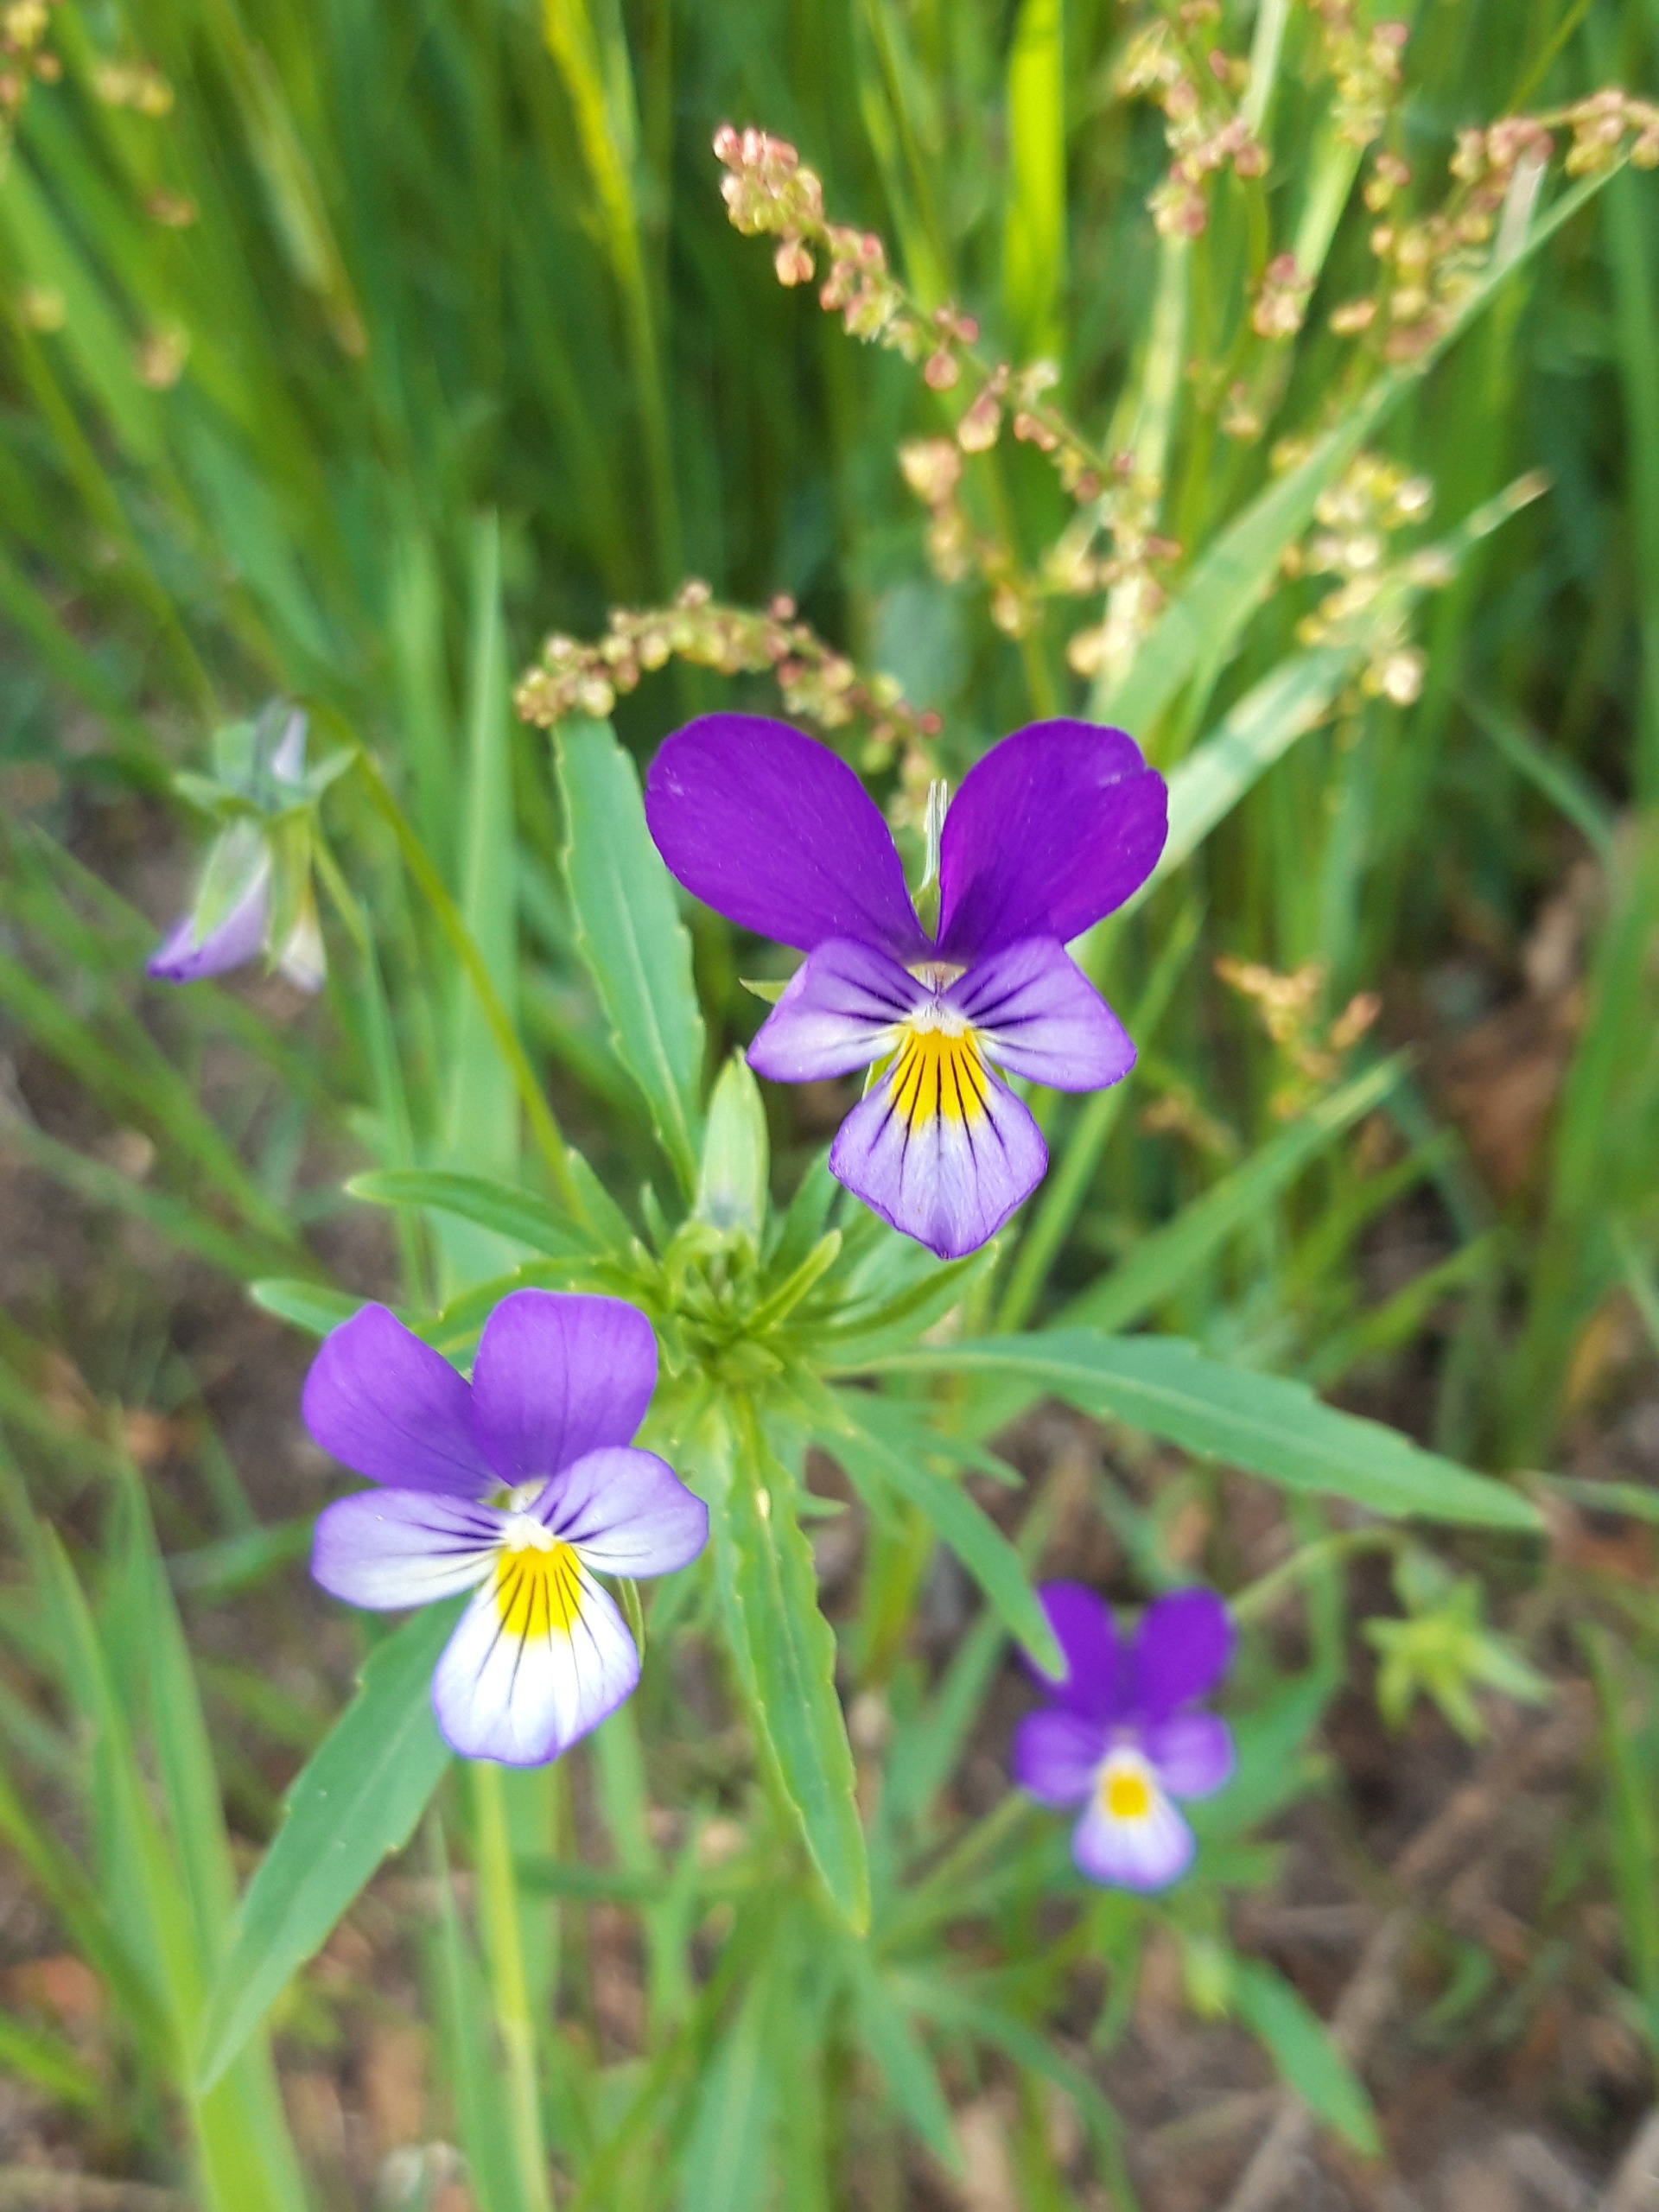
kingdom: Plantae
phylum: Tracheophyta
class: Magnoliopsida
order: Malpighiales
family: Violaceae
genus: Viola
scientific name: Viola tricolor
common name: Almindelig stedmoderblomst
